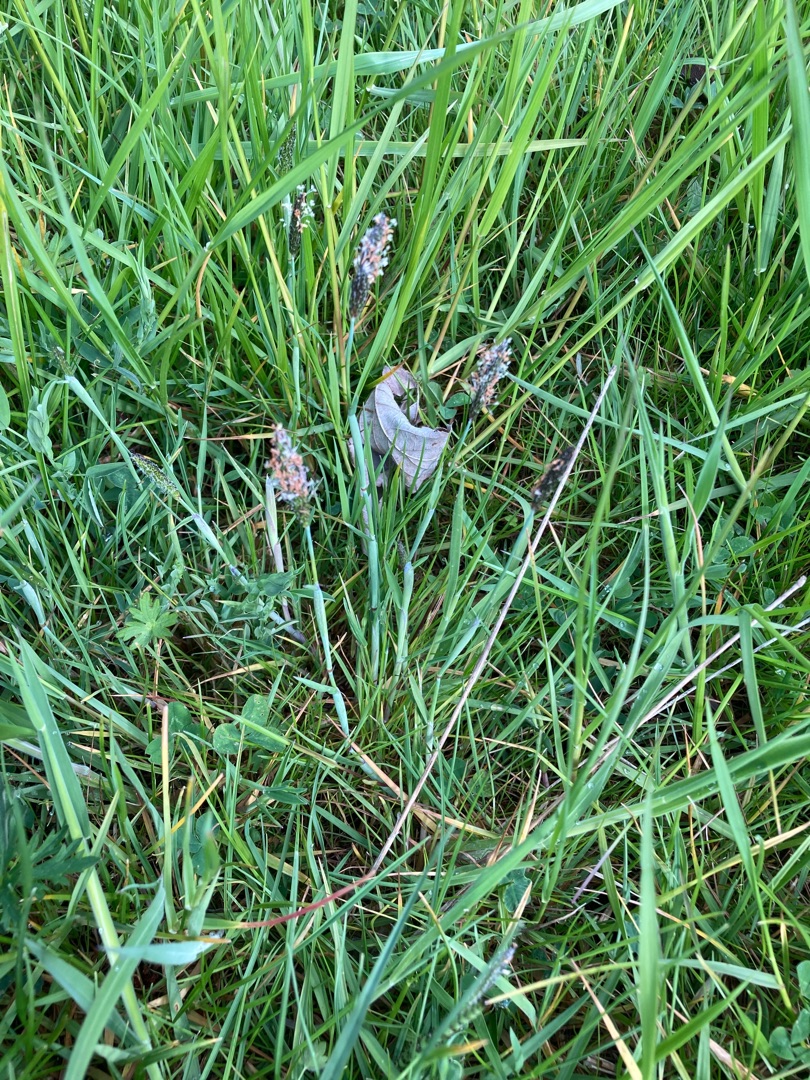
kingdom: Plantae
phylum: Tracheophyta
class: Liliopsida
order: Poales
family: Poaceae
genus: Alopecurus
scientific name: Alopecurus geniculatus
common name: Knæbøjet rævehale
